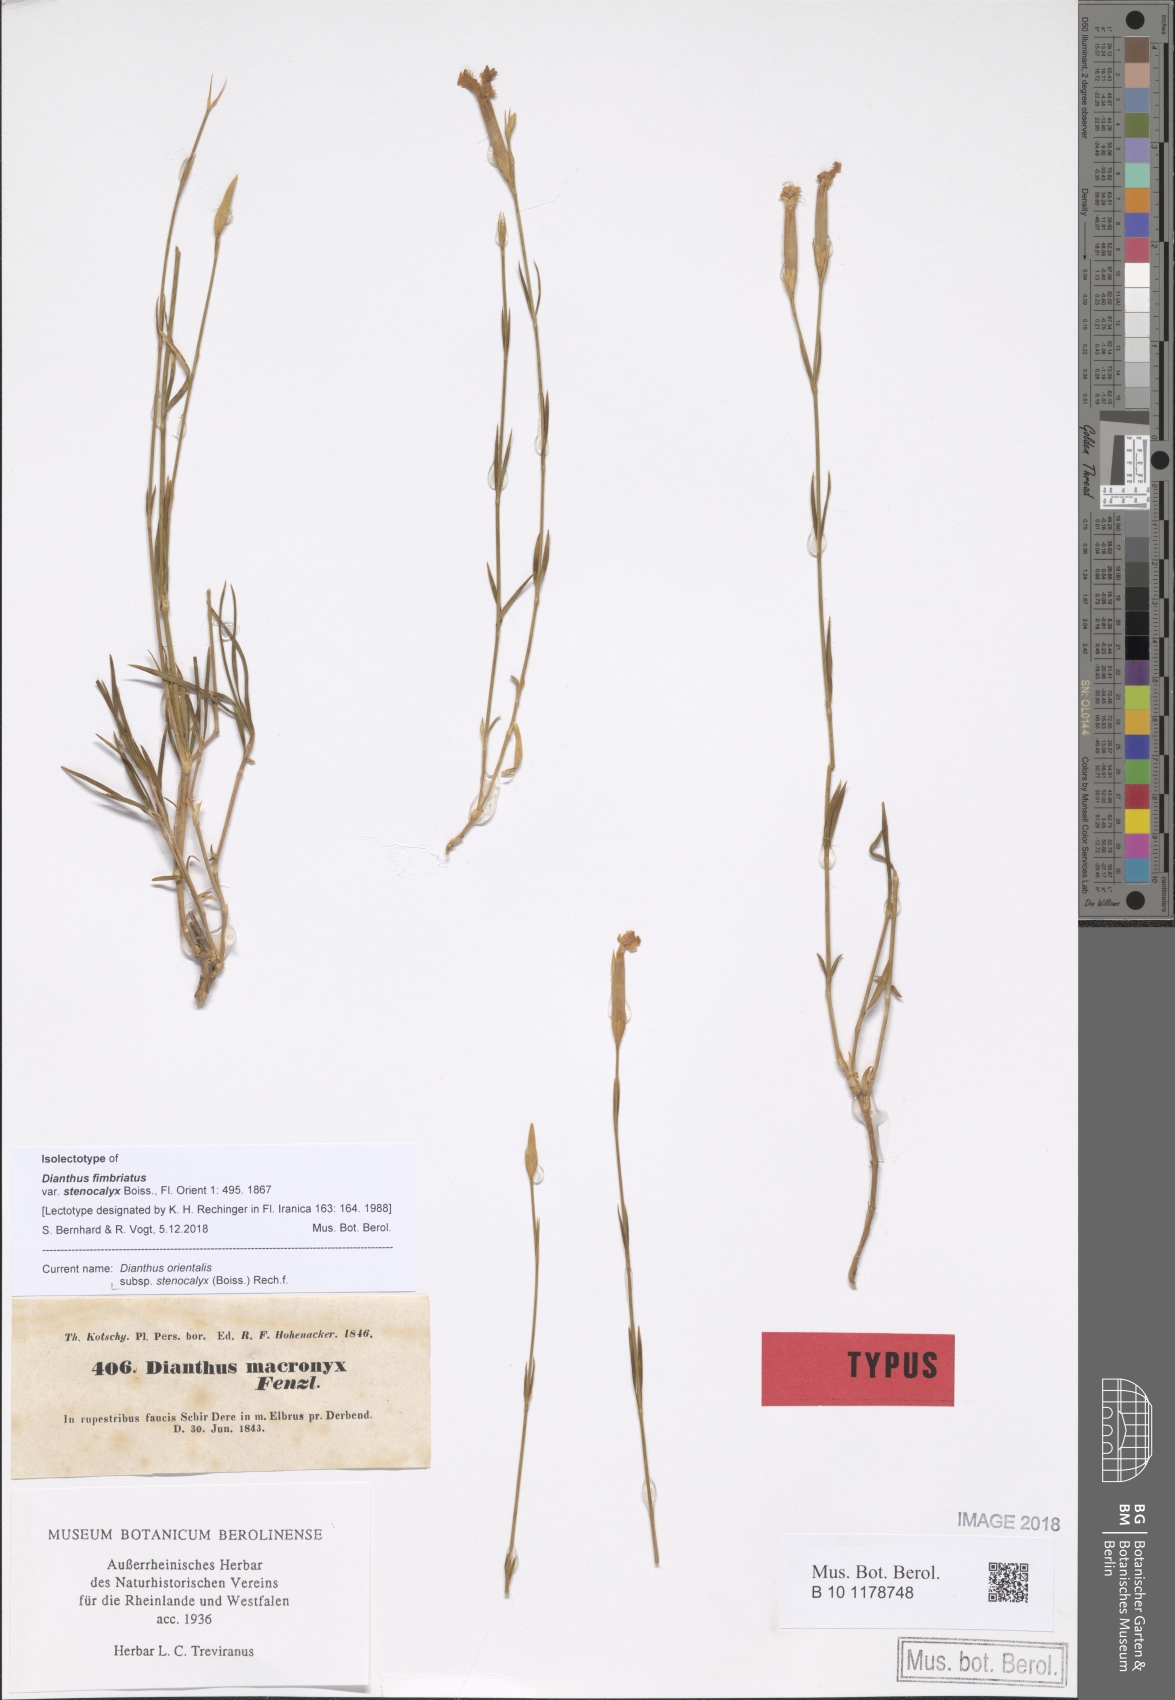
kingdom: Plantae
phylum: Tracheophyta
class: Magnoliopsida
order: Caryophyllales
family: Caryophyllaceae
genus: Dianthus
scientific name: Dianthus orientalis
